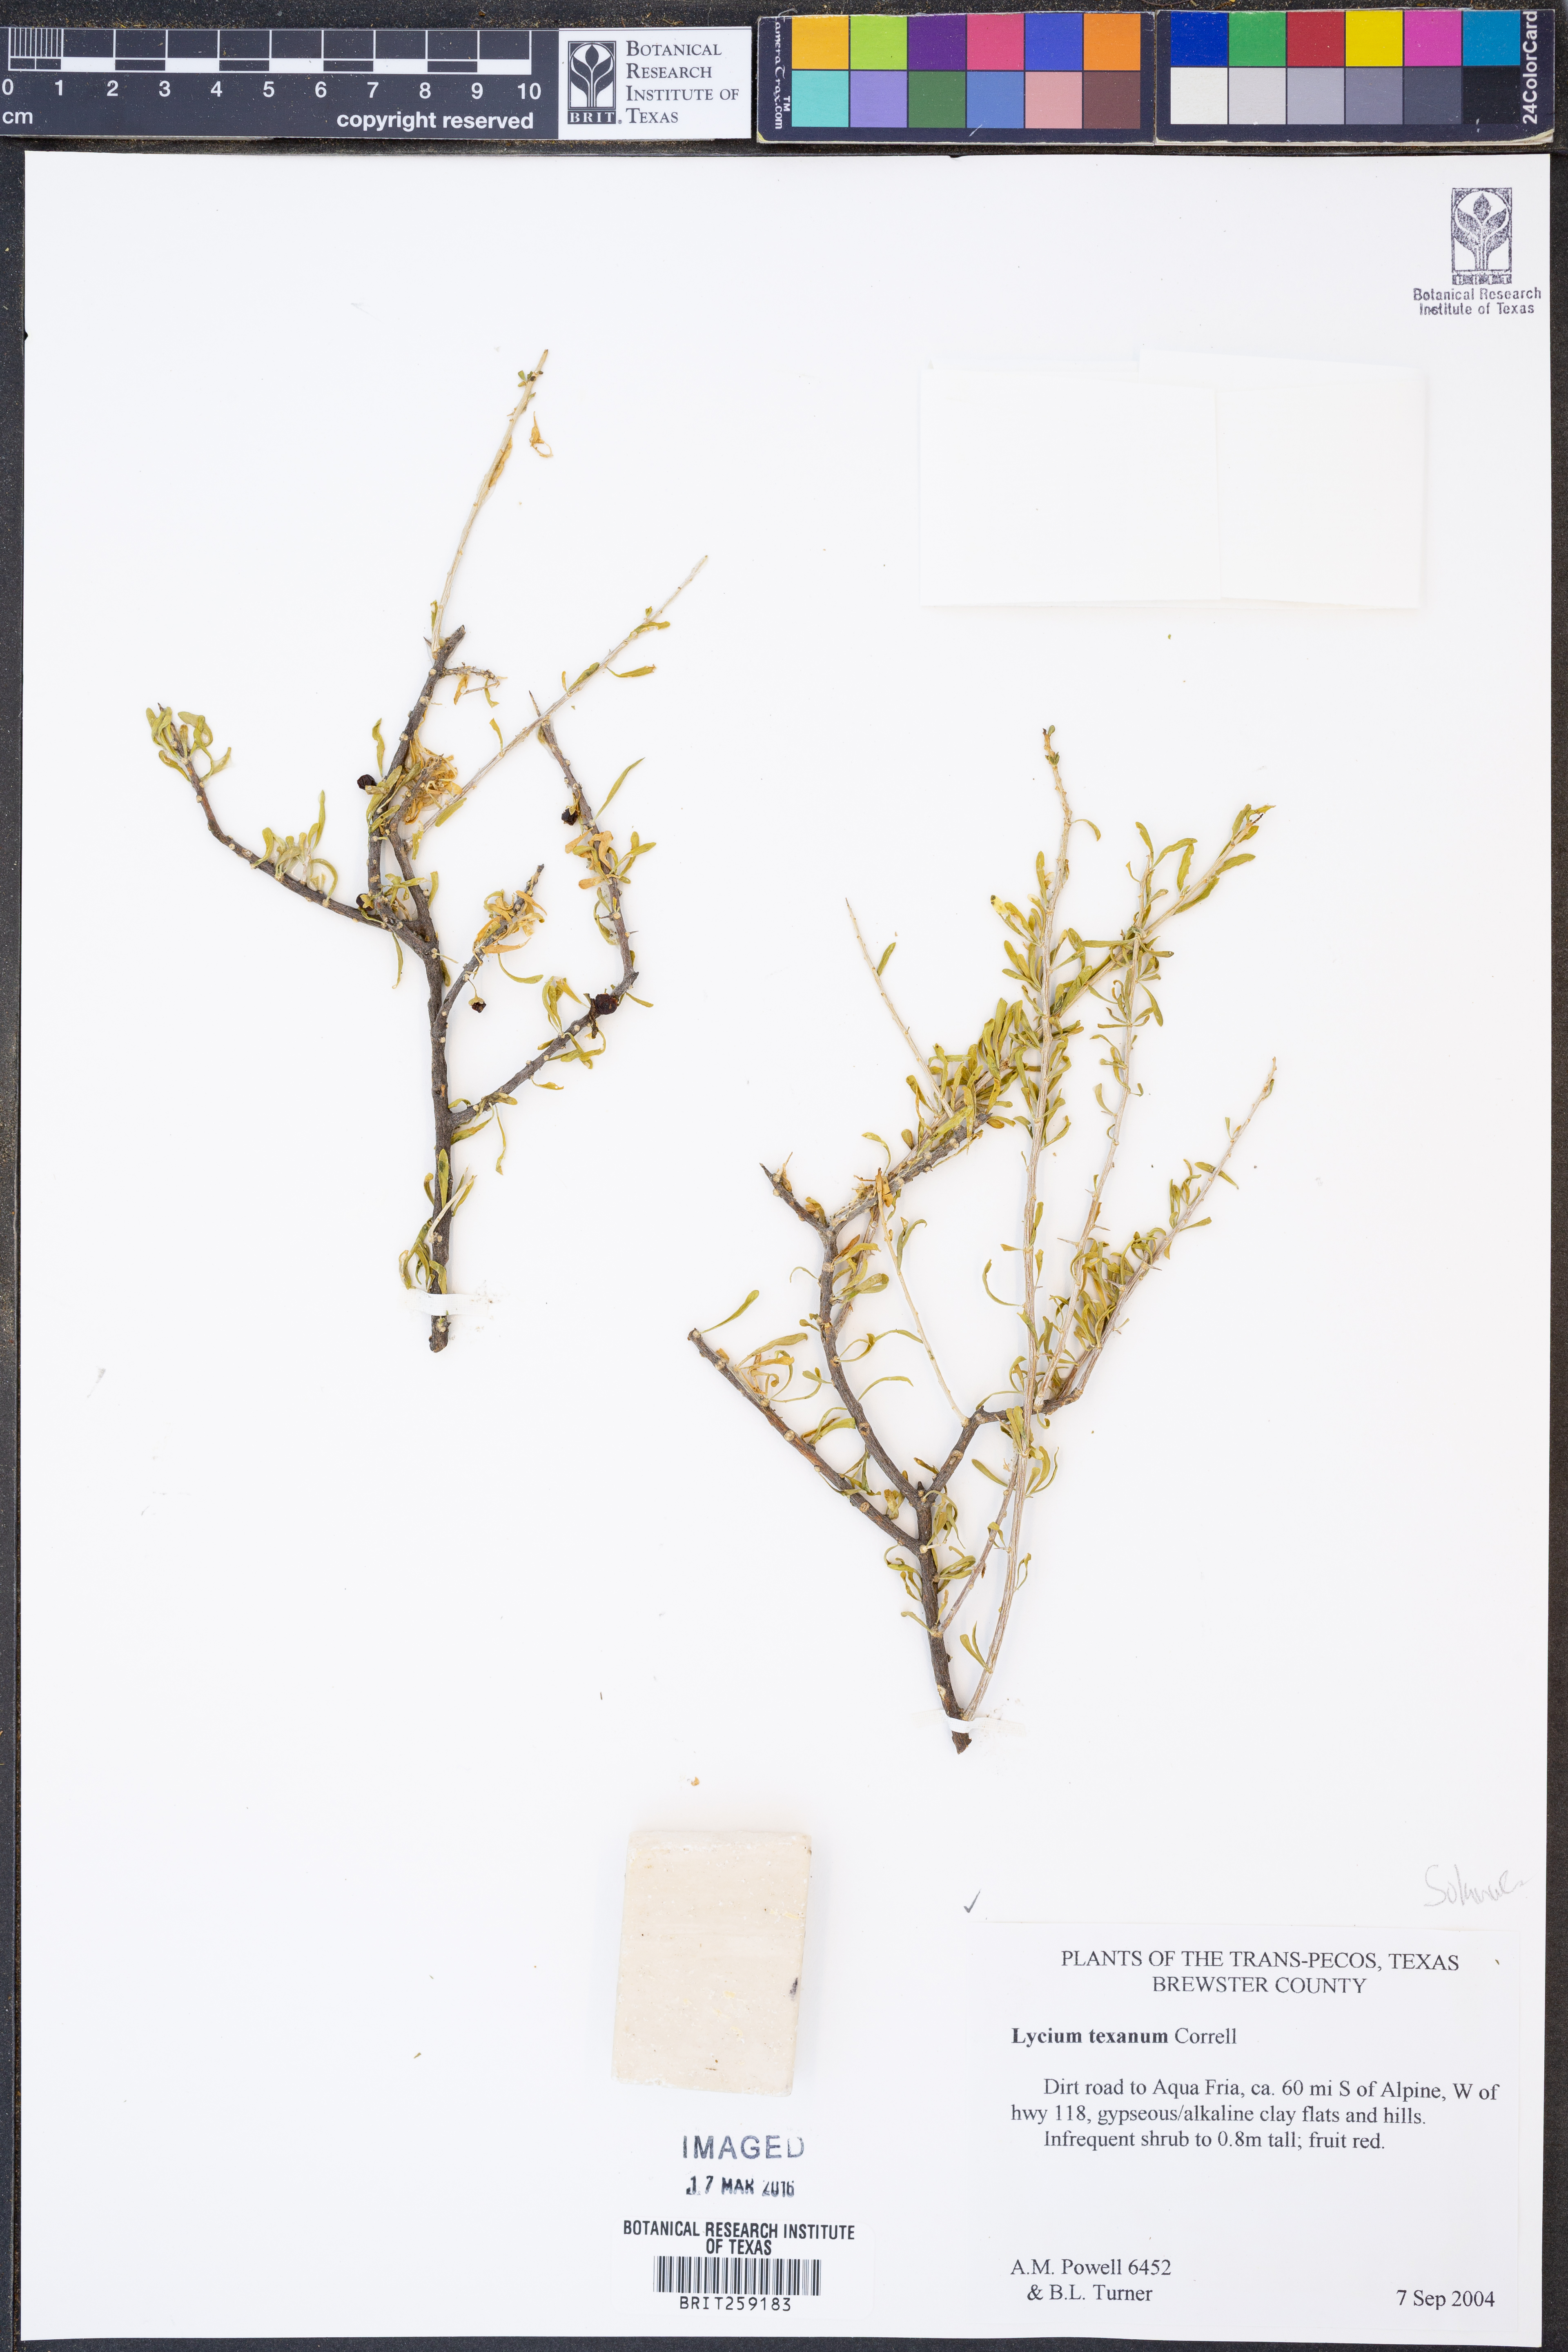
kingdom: Plantae
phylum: Tracheophyta
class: Magnoliopsida
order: Solanales
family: Solanaceae
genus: Lycium
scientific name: Lycium texanum
